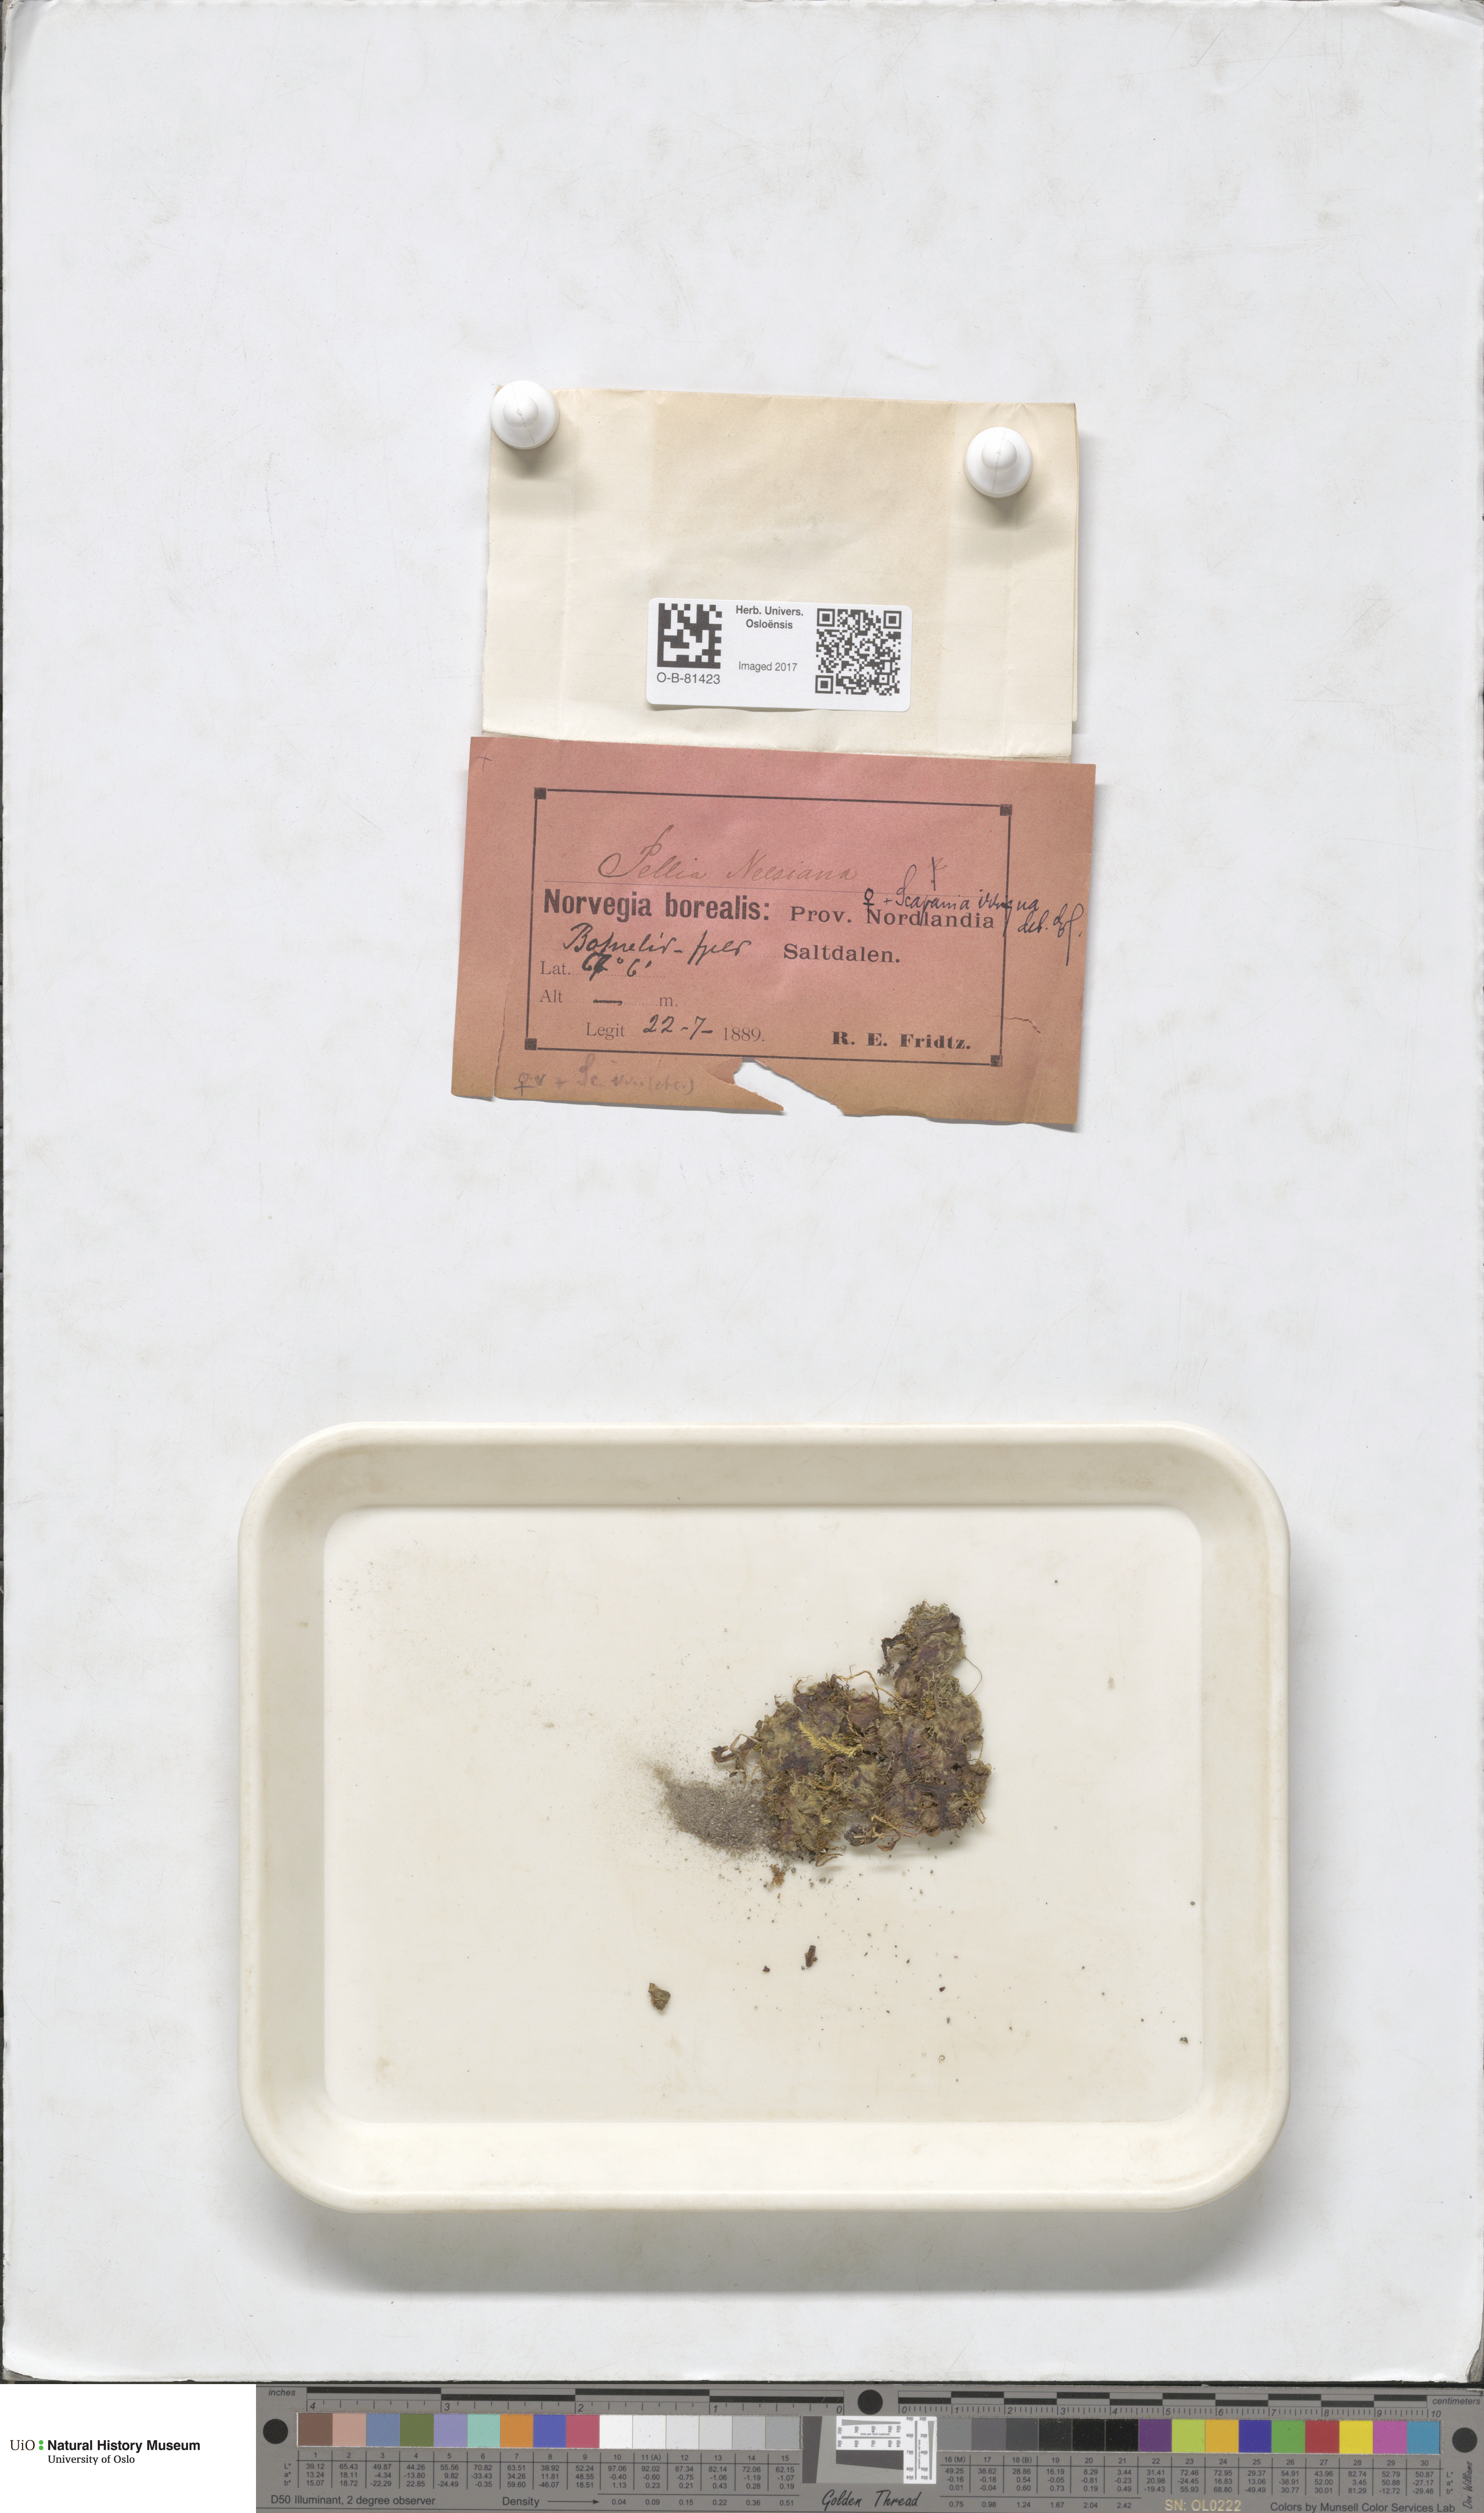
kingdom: Plantae
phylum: Marchantiophyta
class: Jungermanniopsida
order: Pelliales
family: Pelliaceae
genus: Pellia
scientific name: Pellia neesiana
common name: Nees  pellia
